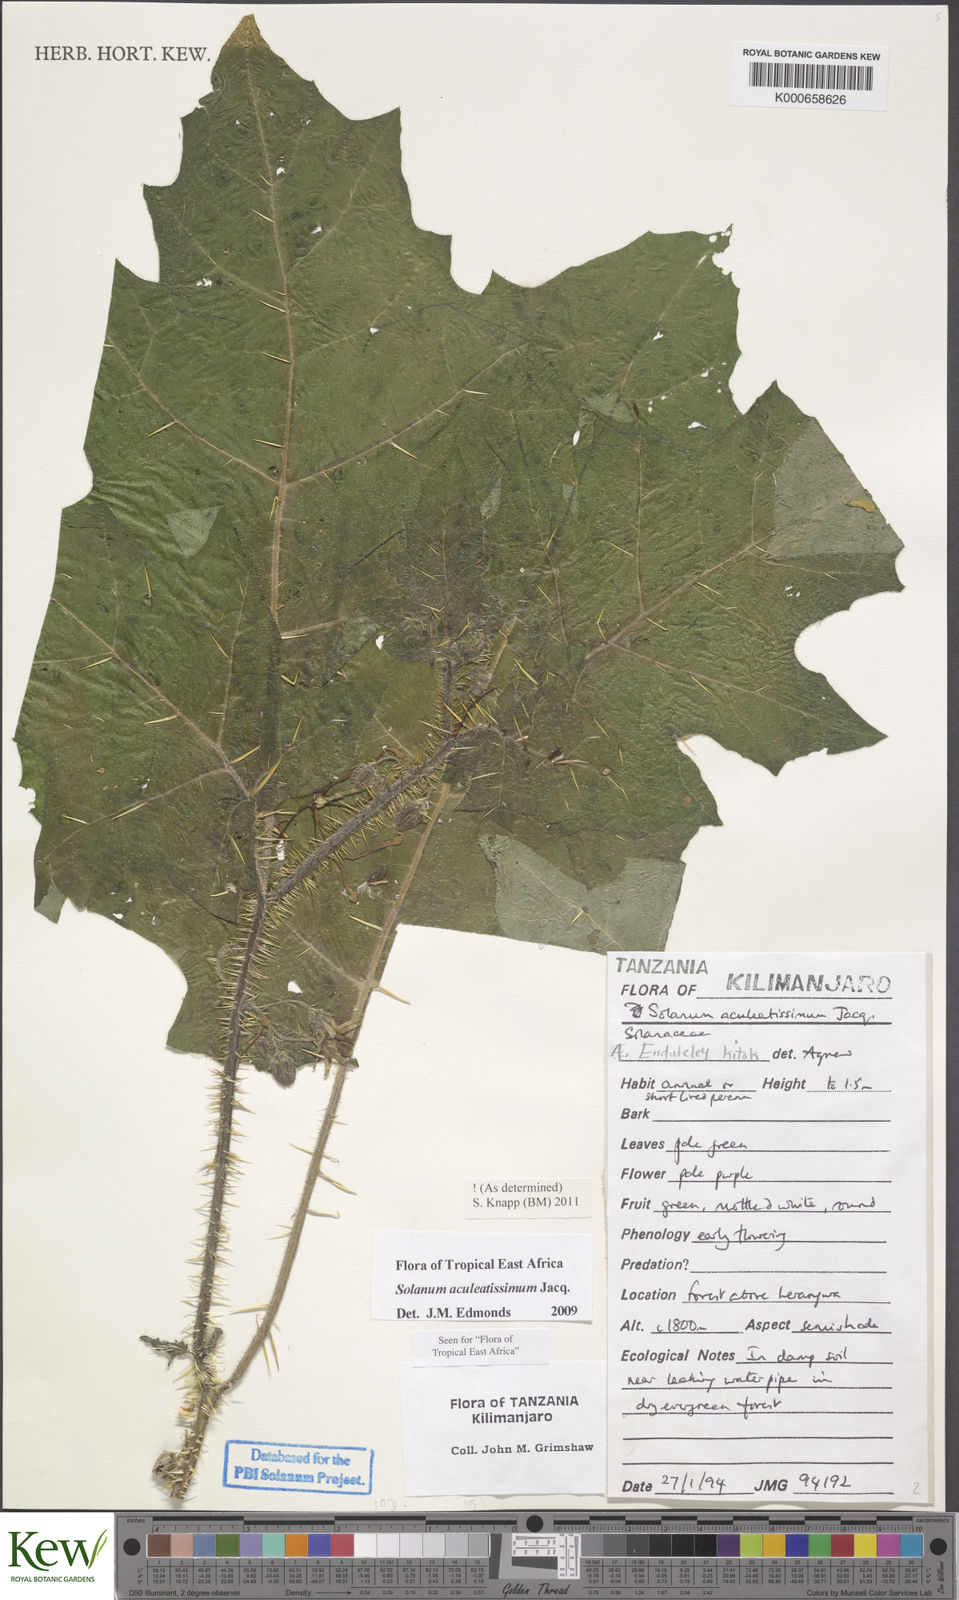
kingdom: Plantae
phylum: Tracheophyta
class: Magnoliopsida
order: Solanales
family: Solanaceae
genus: Solanum
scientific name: Solanum aculeatissimum
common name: Dutch eggplant
